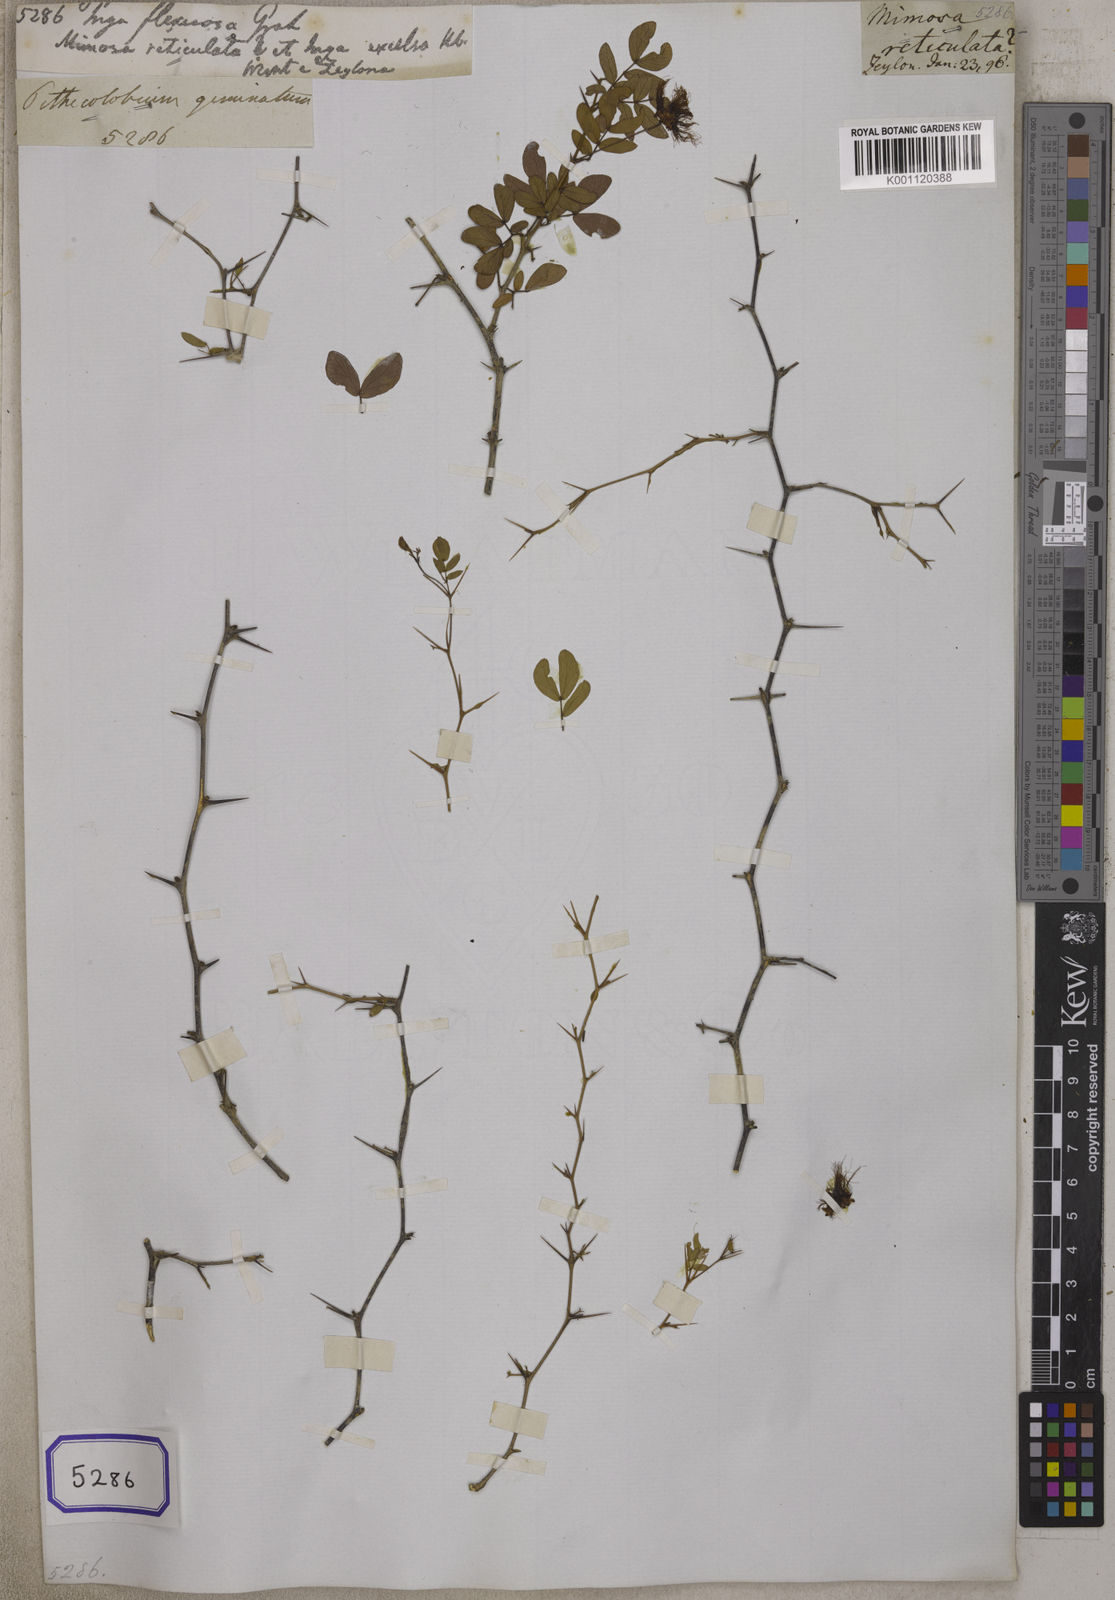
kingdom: Plantae
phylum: Tracheophyta
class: Magnoliopsida
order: Fabales
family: Fabaceae
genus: Thailentadopsis
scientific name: Thailentadopsis nitida
